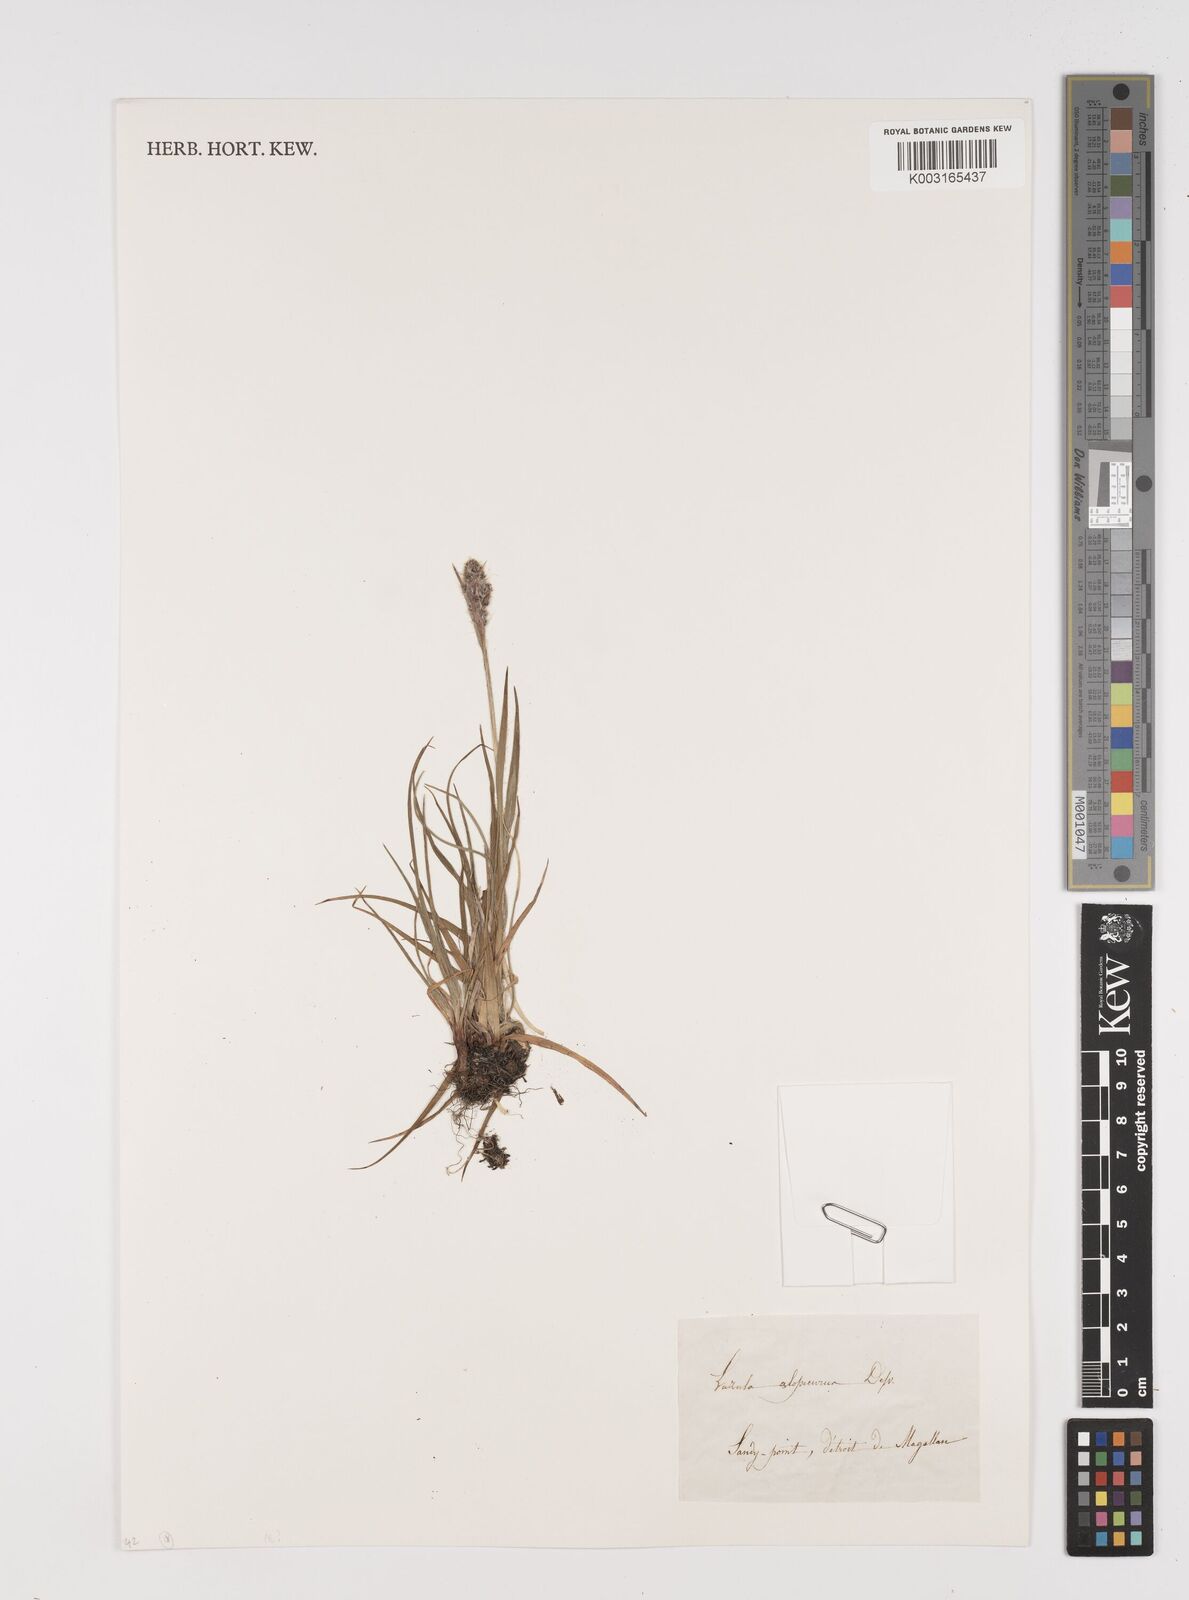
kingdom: Plantae
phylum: Tracheophyta
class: Liliopsida
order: Poales
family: Juncaceae
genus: Luzula
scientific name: Luzula alopecurus
